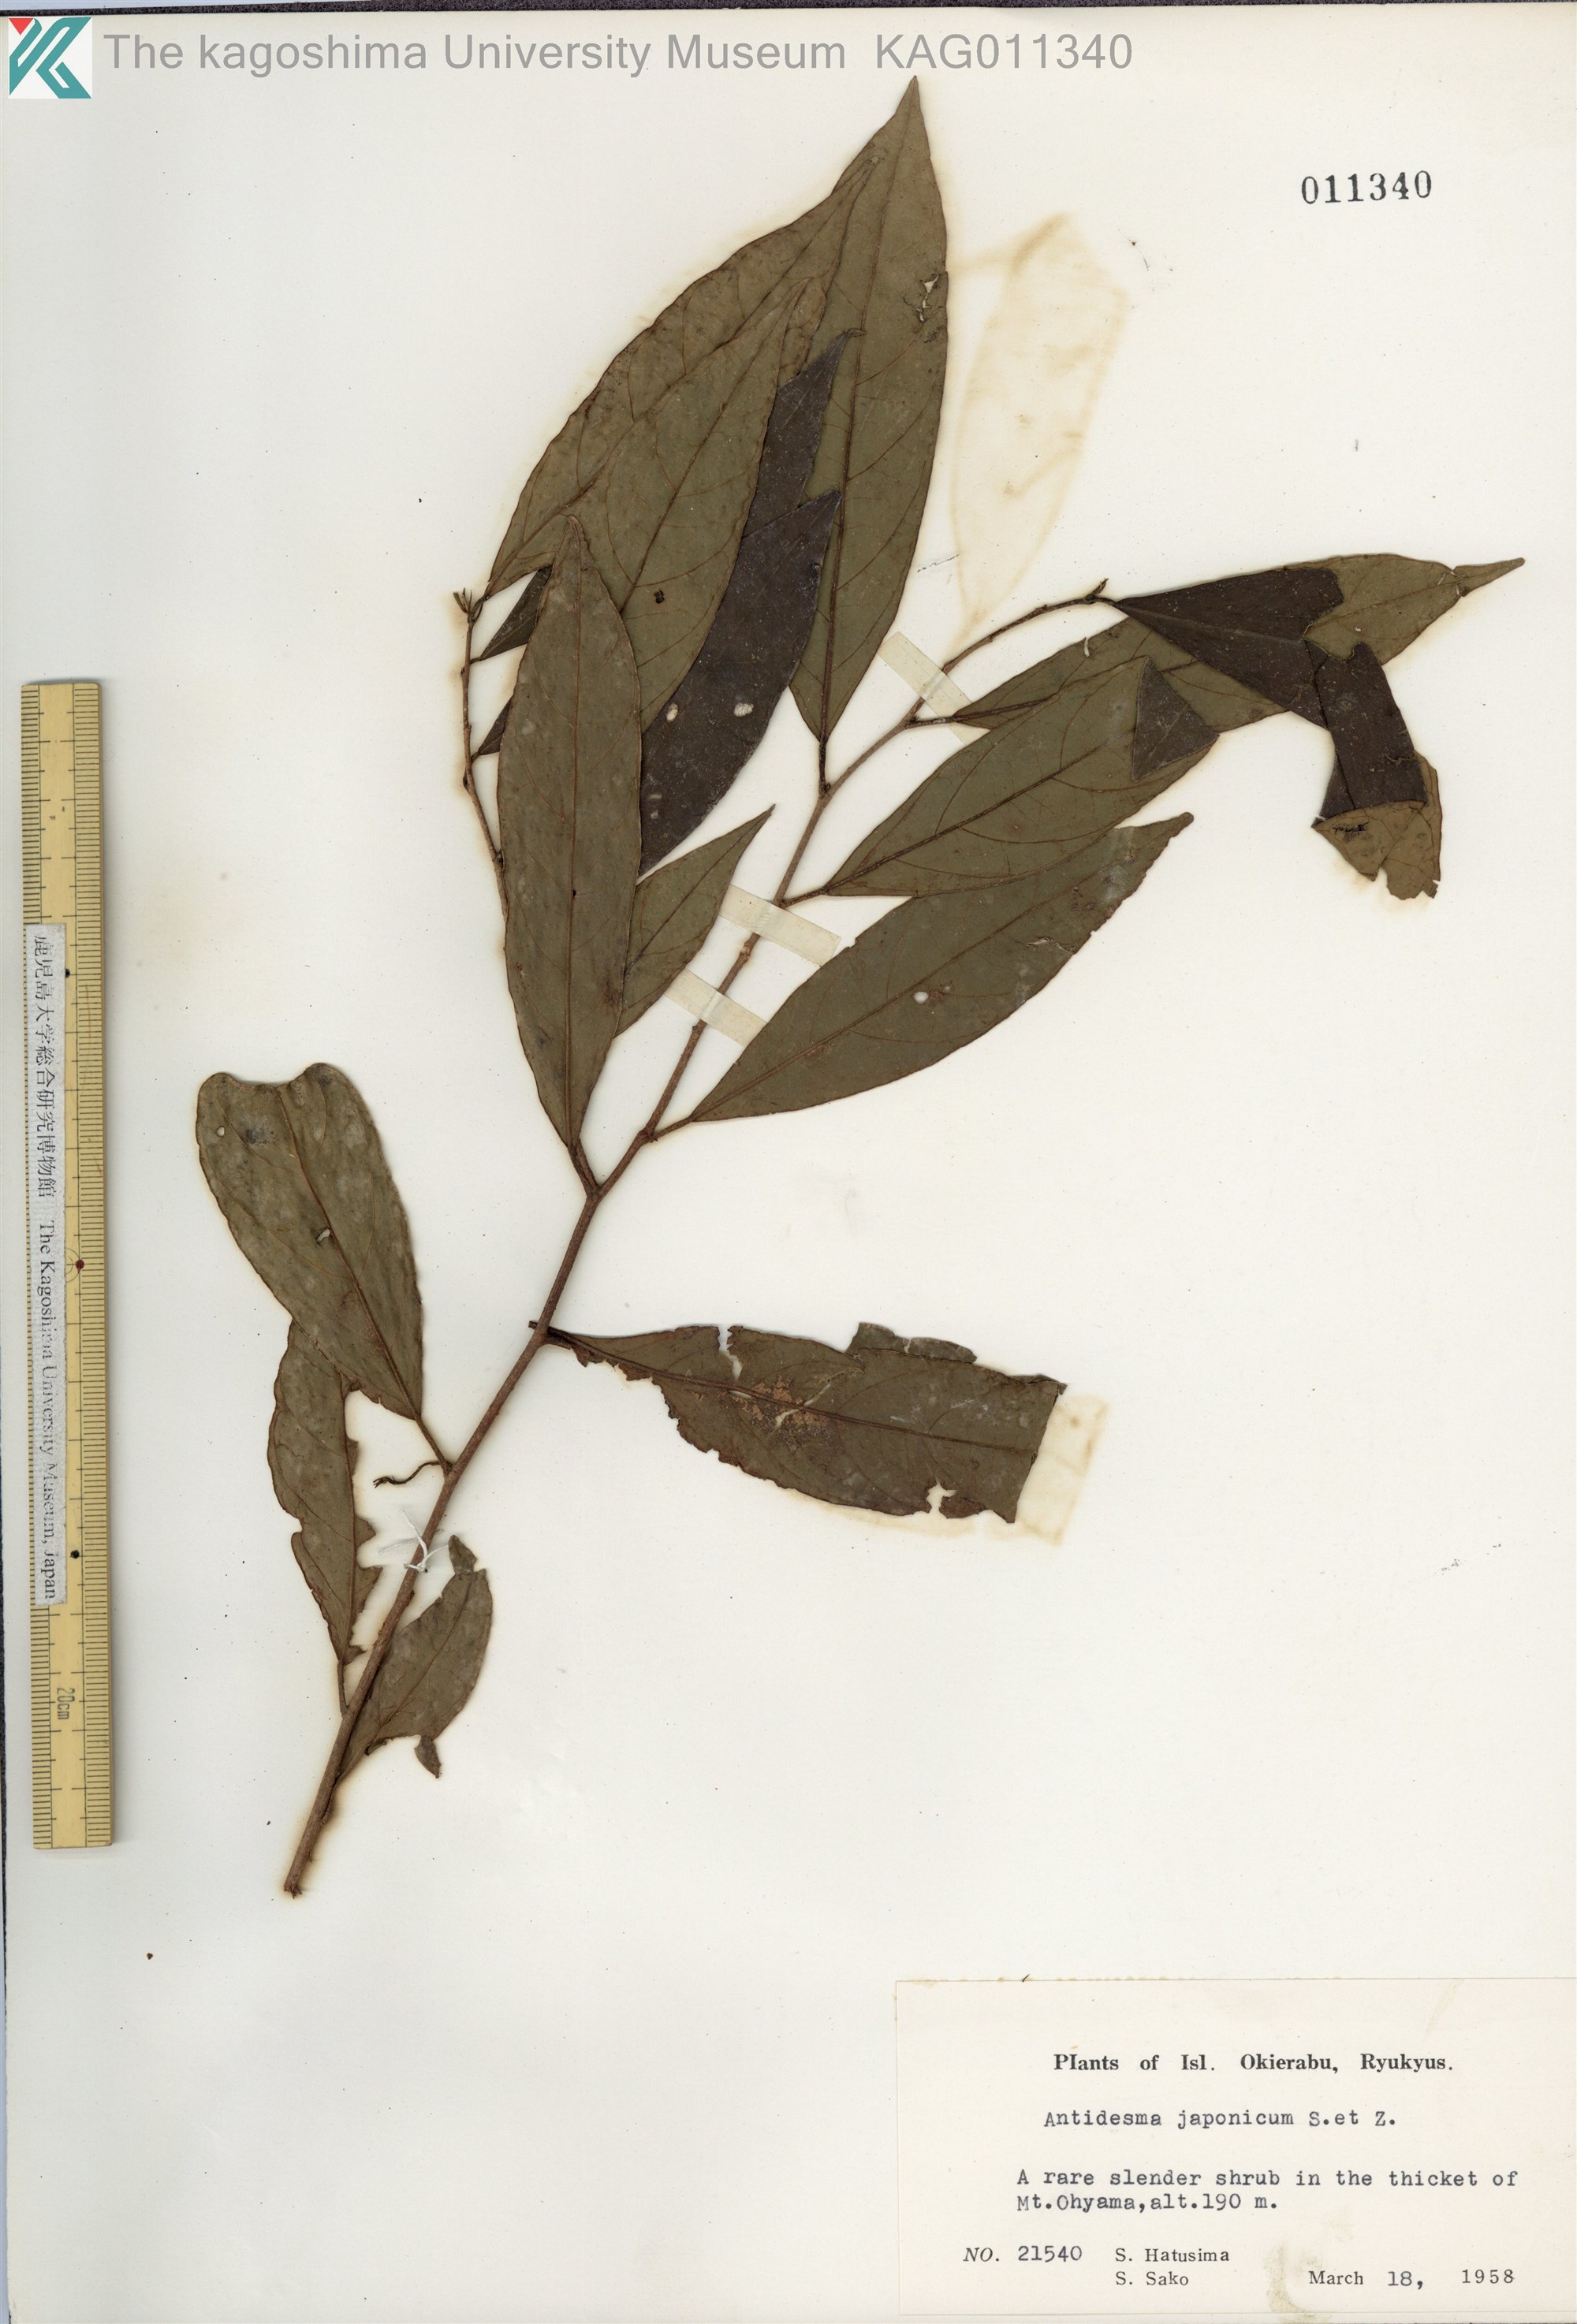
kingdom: Plantae
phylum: Tracheophyta
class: Magnoliopsida
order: Malpighiales
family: Phyllanthaceae
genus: Antidesma
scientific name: Antidesma japonicum
